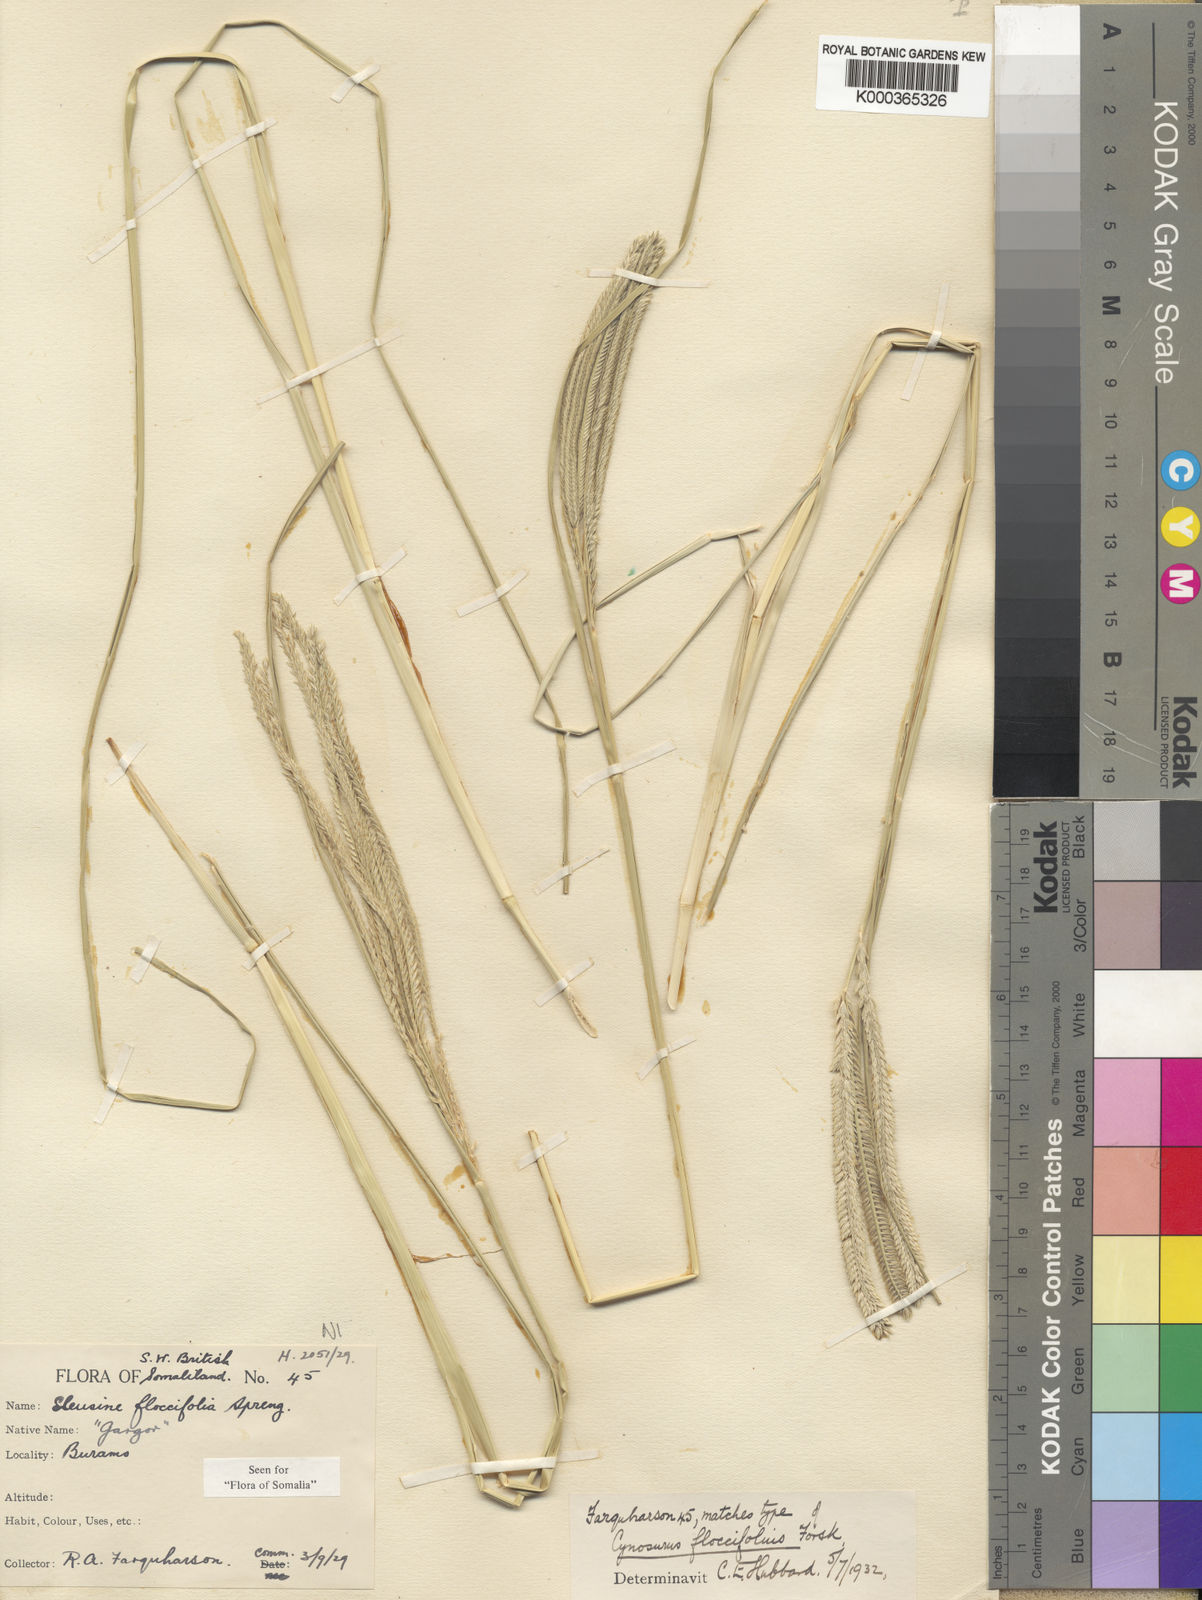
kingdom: Plantae
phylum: Tracheophyta
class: Liliopsida
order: Poales
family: Poaceae
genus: Eleusine
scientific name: Eleusine floccifolia
